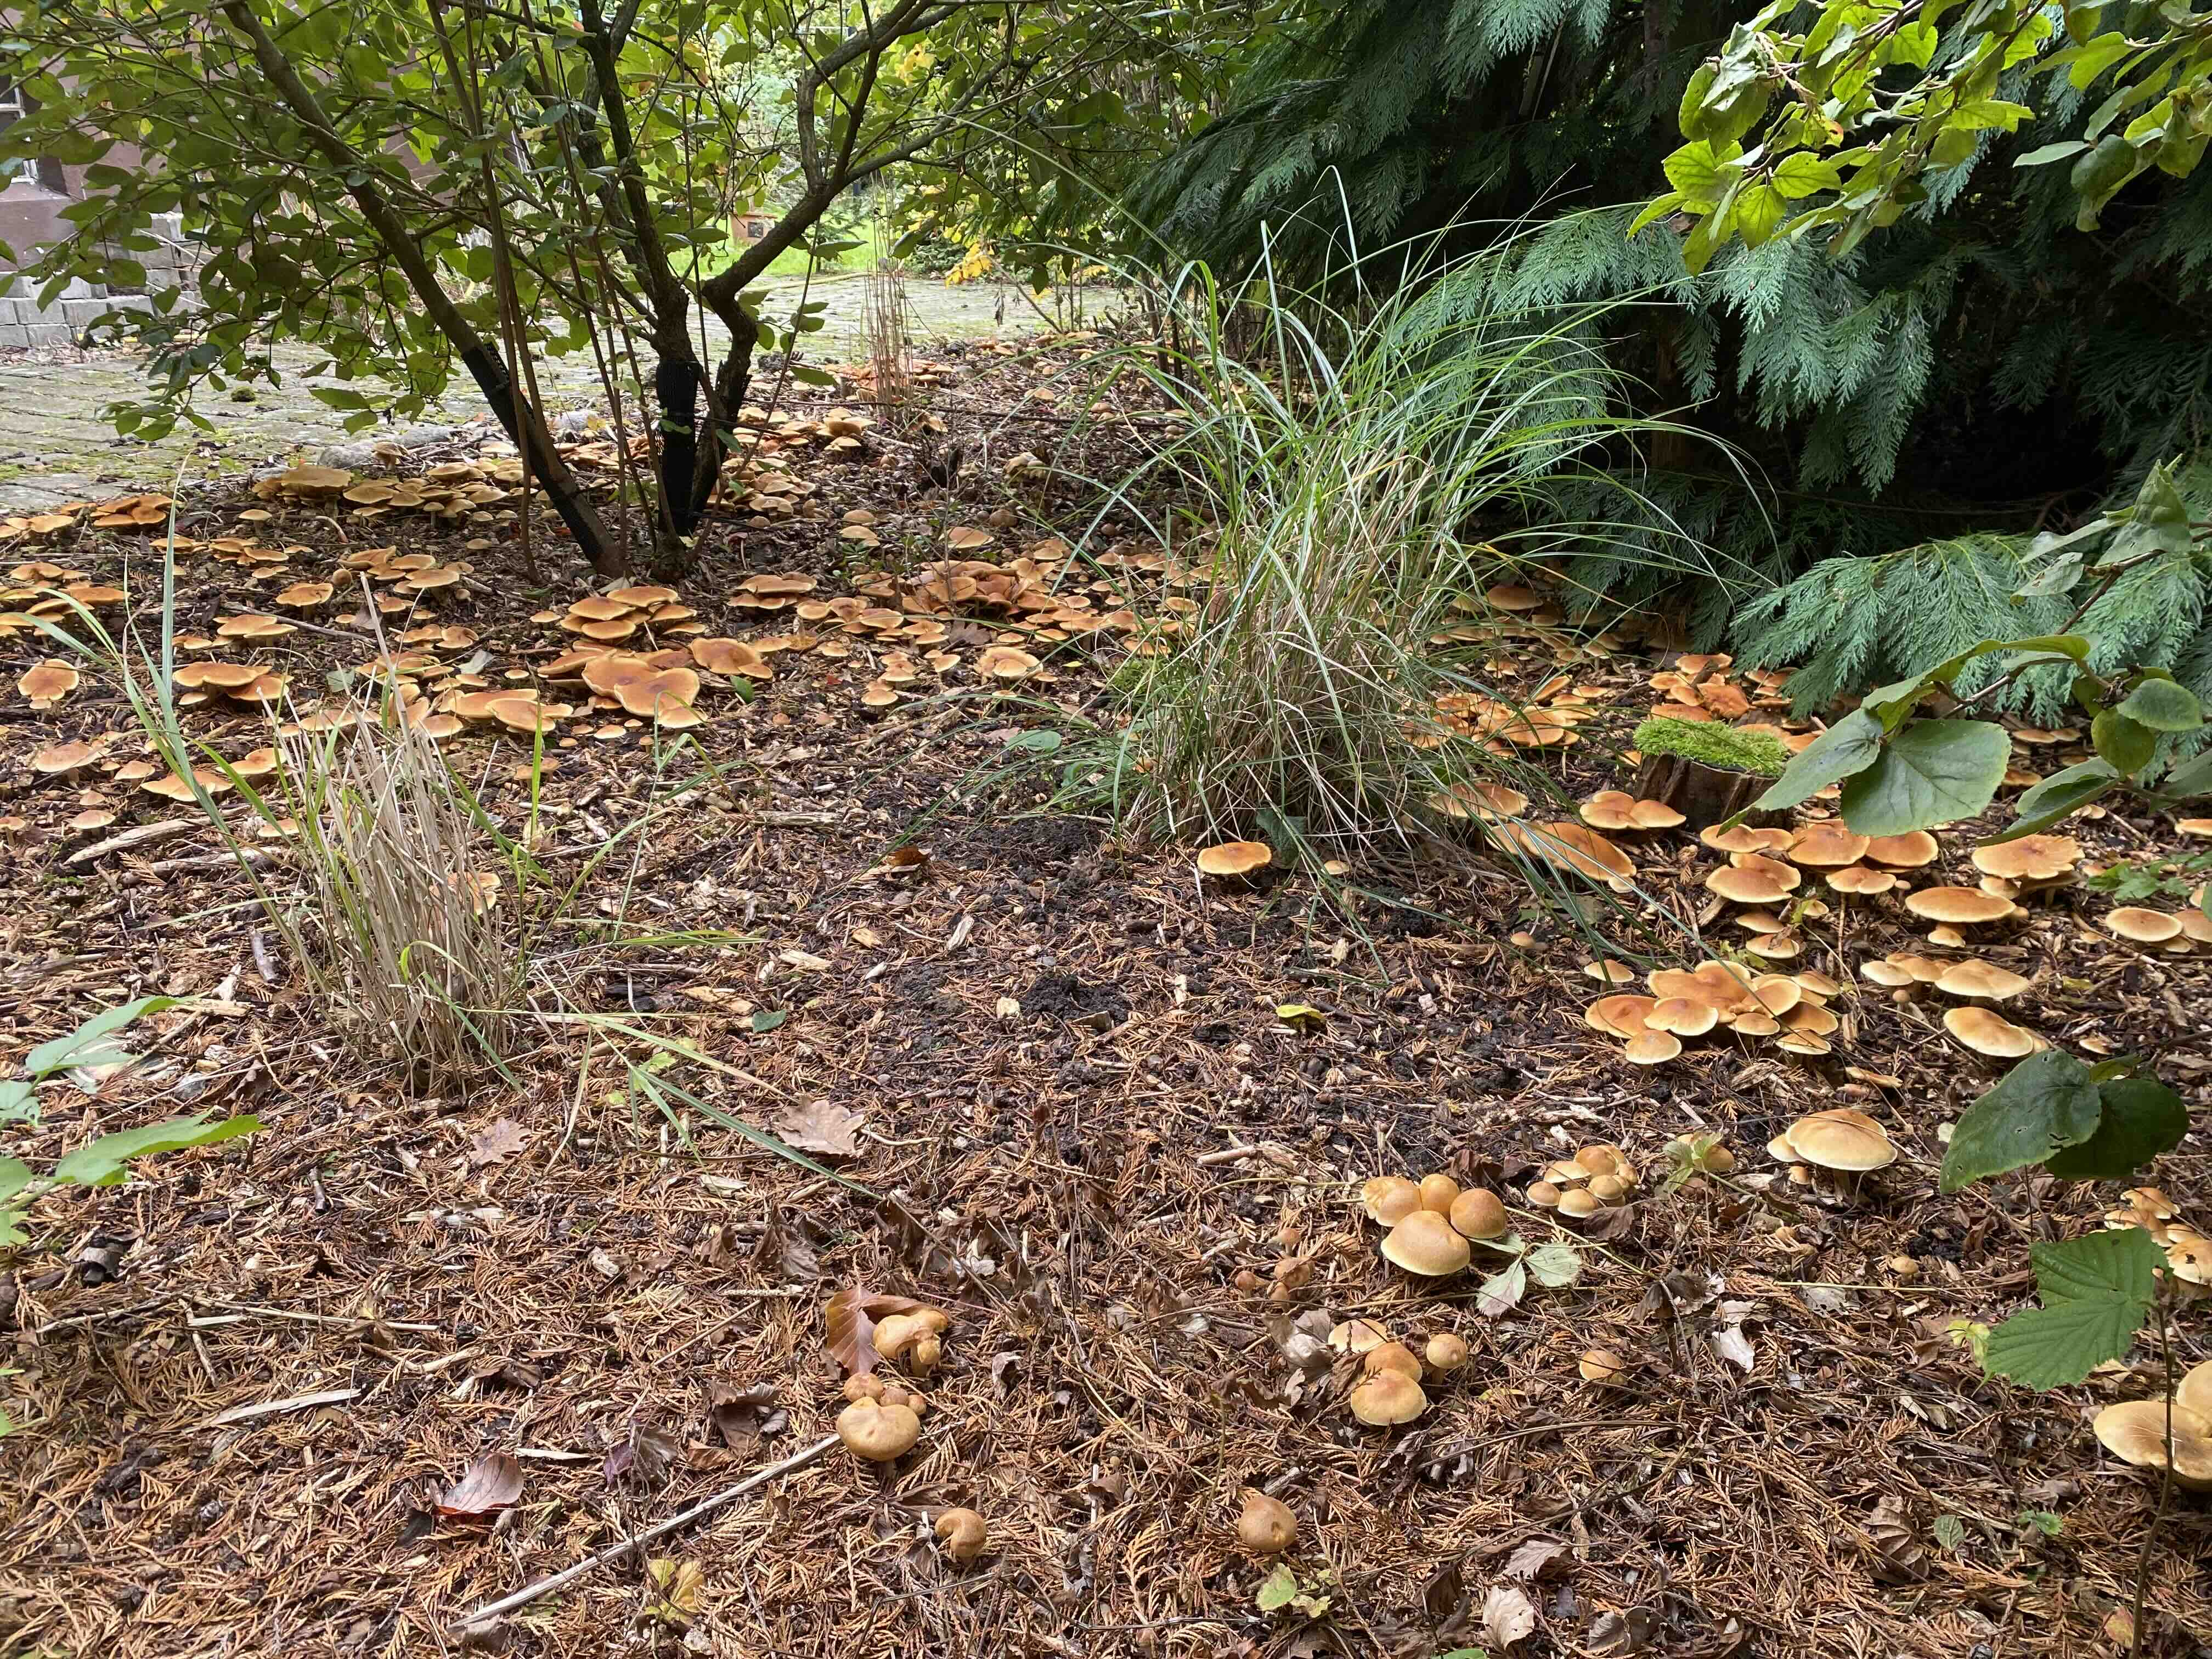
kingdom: Fungi
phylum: Basidiomycota
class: Agaricomycetes
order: Agaricales
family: Hymenogastraceae
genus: Gymnopilus
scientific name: Gymnopilus penetrans
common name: plettet flammehat
